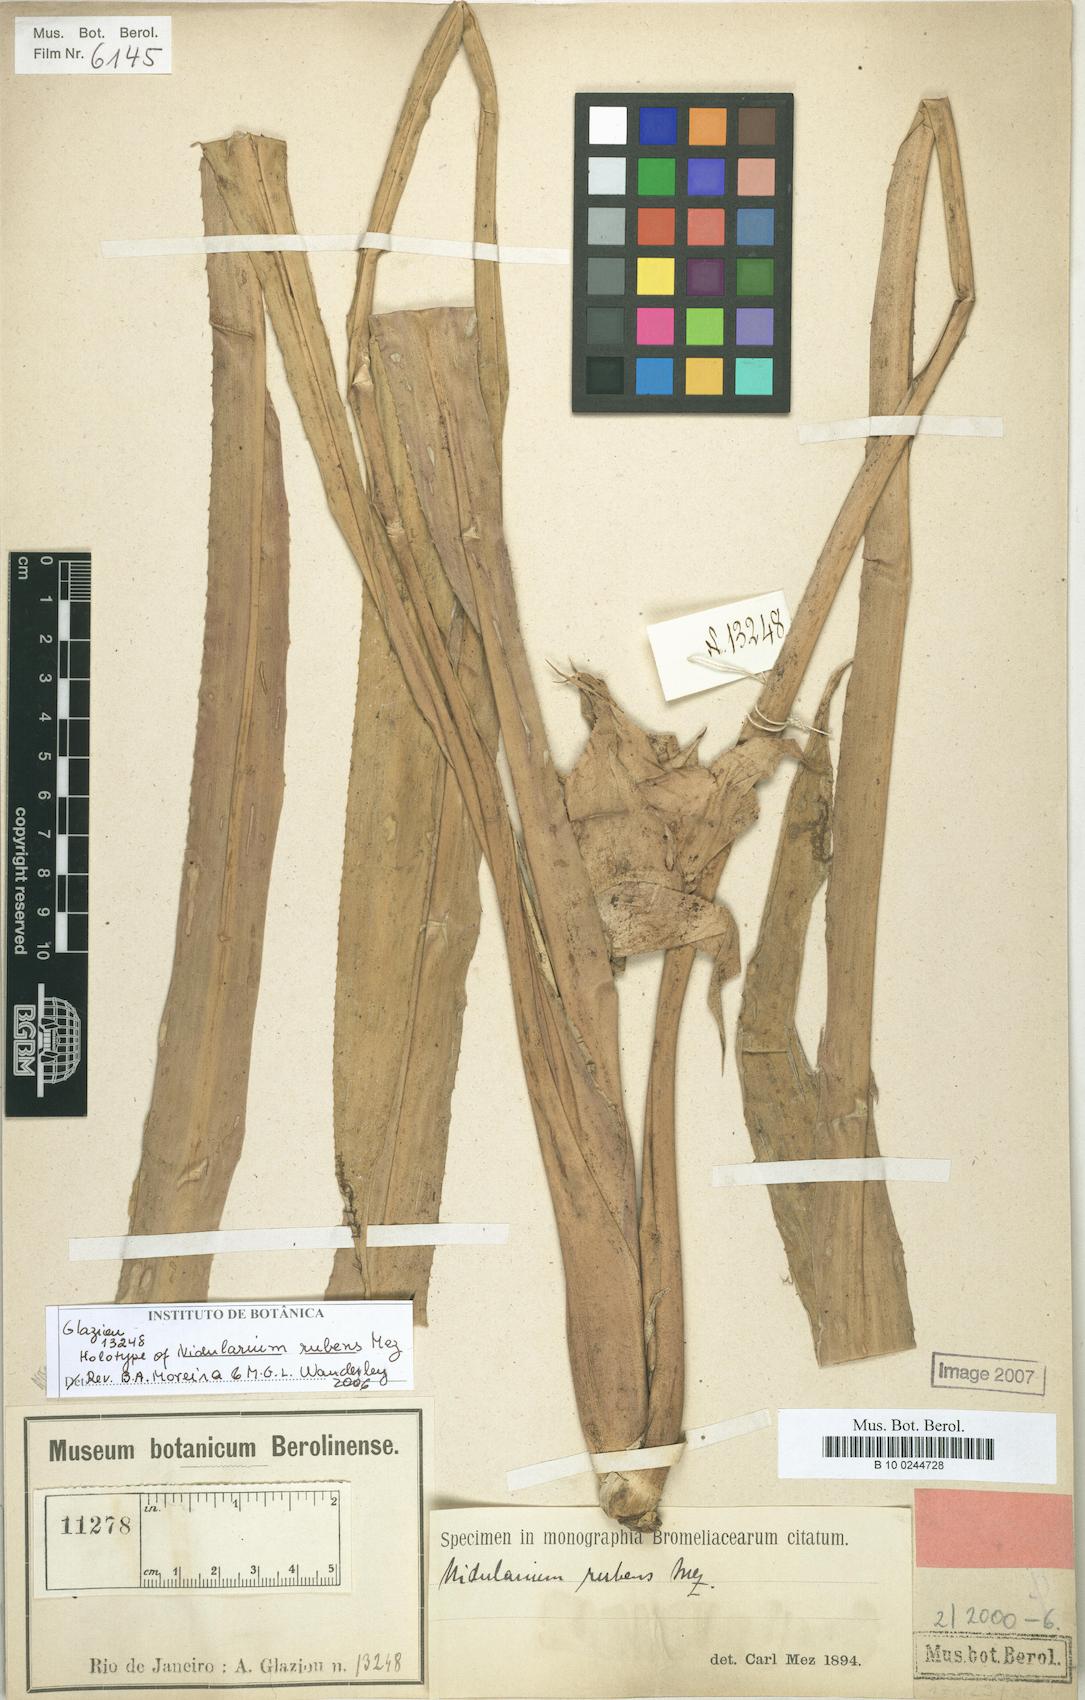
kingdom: Plantae
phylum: Tracheophyta
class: Liliopsida
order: Poales
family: Bromeliaceae
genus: Nidularium
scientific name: Nidularium rubens
